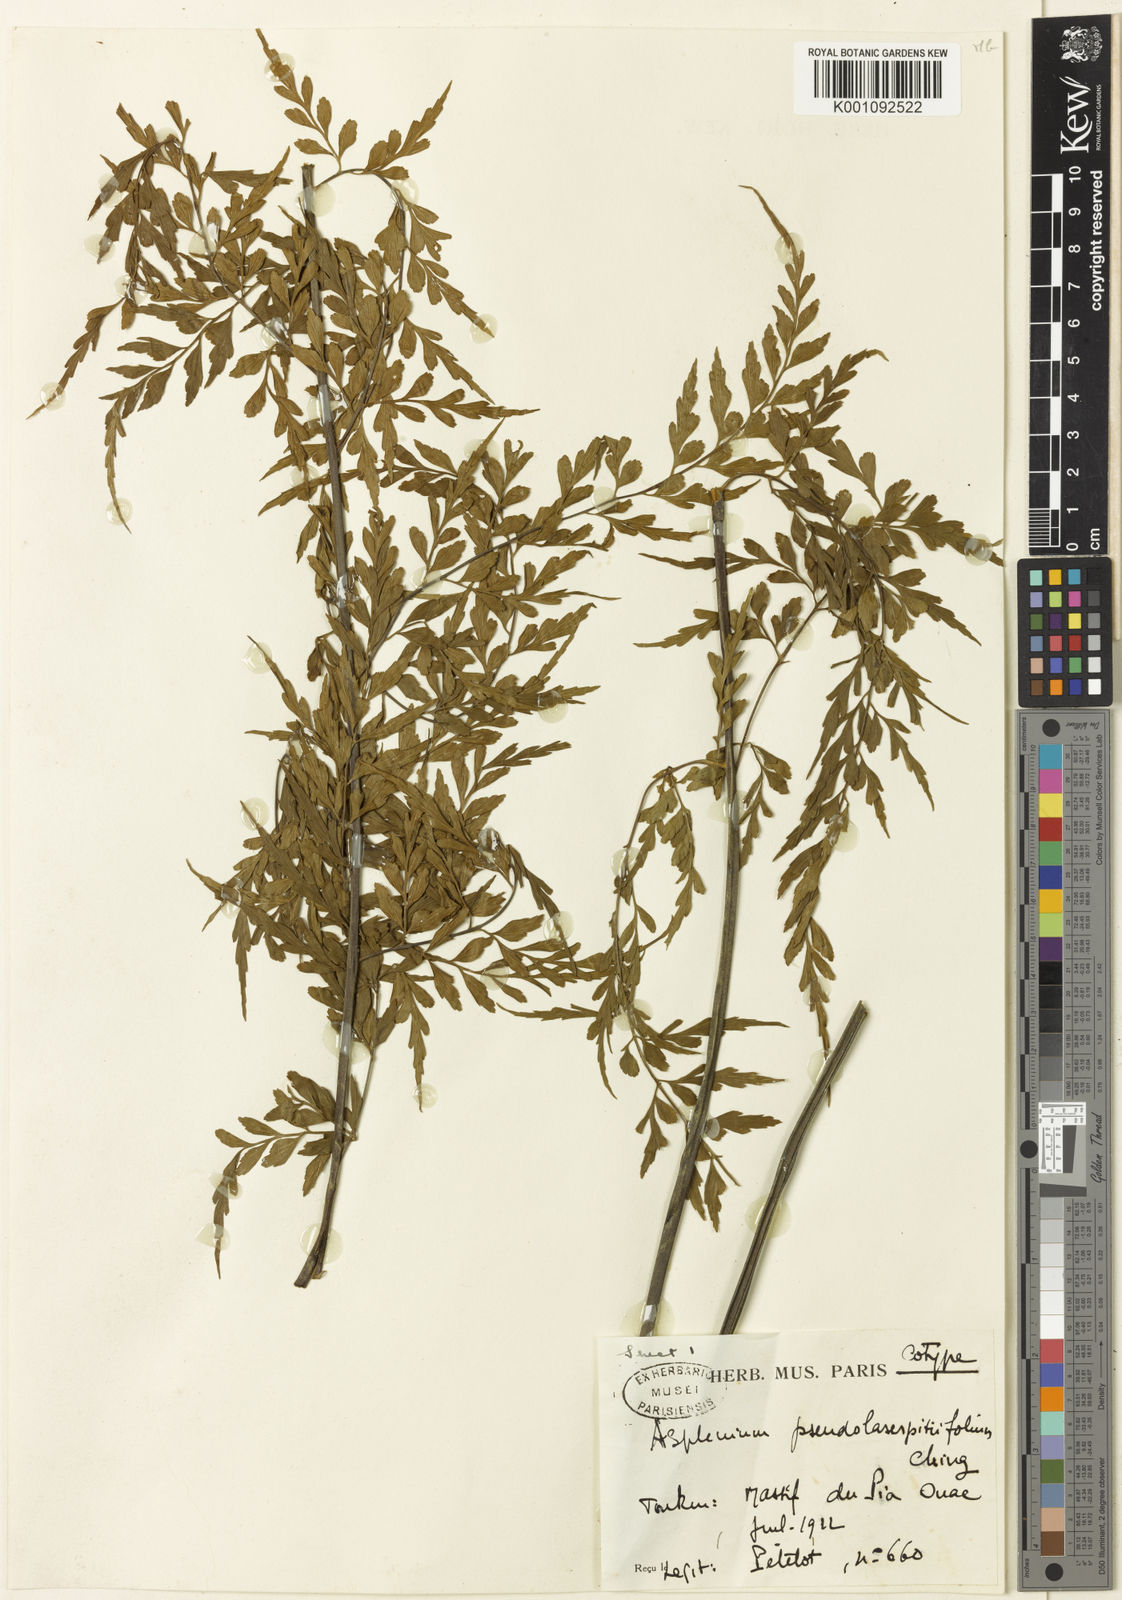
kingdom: Plantae
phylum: Tracheophyta
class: Polypodiopsida
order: Polypodiales
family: Aspleniaceae
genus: Asplenium
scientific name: Asplenium pseudolaserpitiifolium
